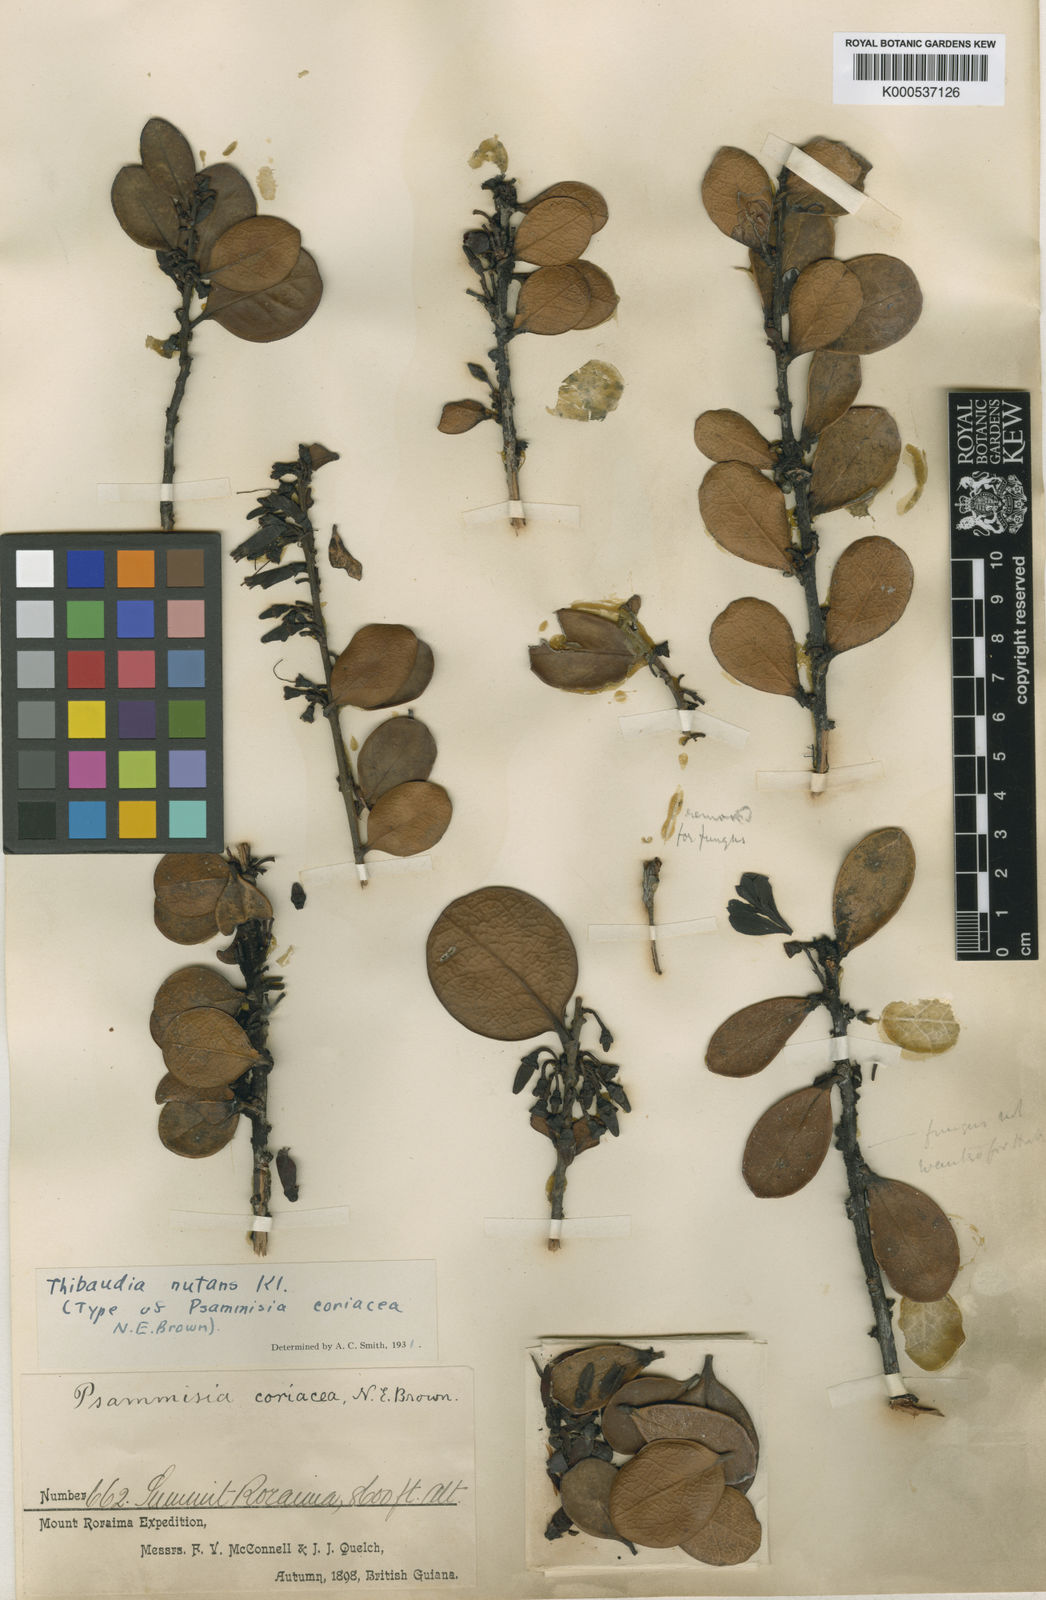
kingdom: Plantae
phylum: Tracheophyta
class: Magnoliopsida
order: Ericales
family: Ericaceae
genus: Thibaudia
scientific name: Thibaudia ulei
